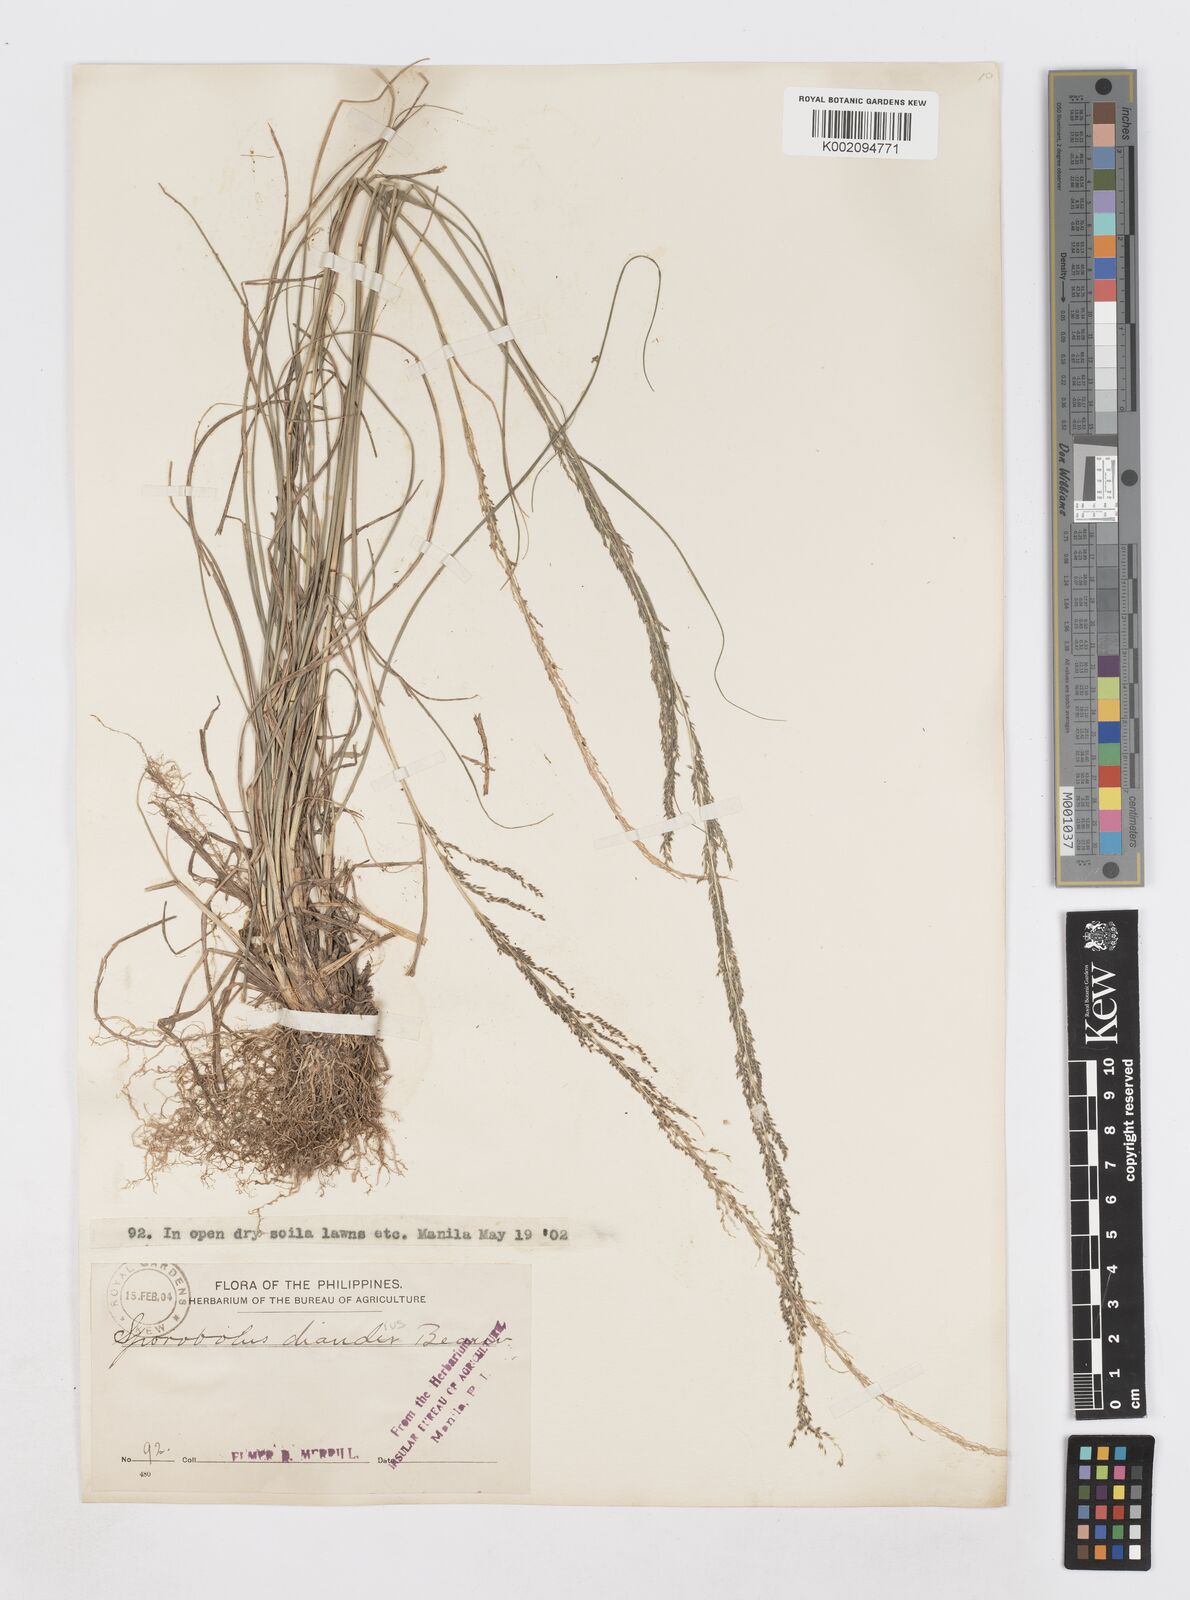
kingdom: Plantae
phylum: Tracheophyta
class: Liliopsida
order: Poales
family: Poaceae
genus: Sporobolus
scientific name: Sporobolus diandrus
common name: Tussock dropseed
